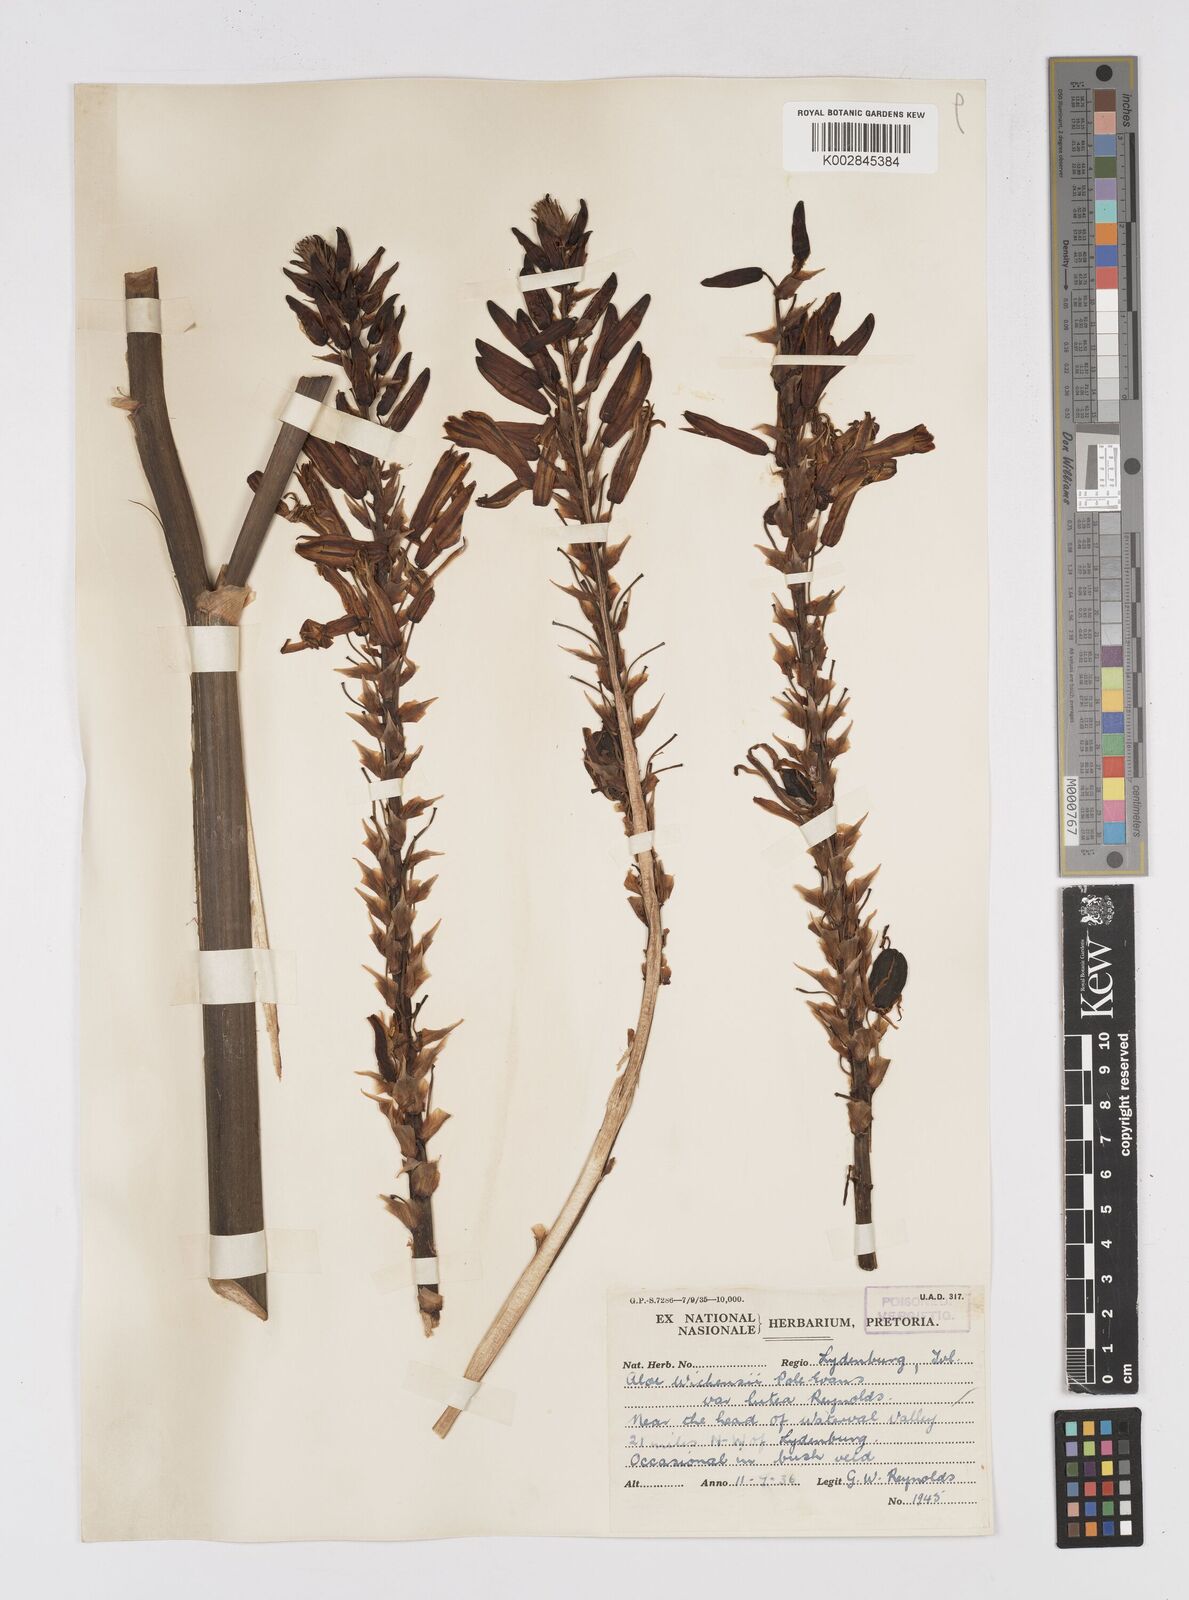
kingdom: Plantae
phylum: Tracheophyta
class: Liliopsida
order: Asparagales
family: Asphodelaceae
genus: Aloe
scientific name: Aloe cryptopoda
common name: Dr. kirk's aloe
